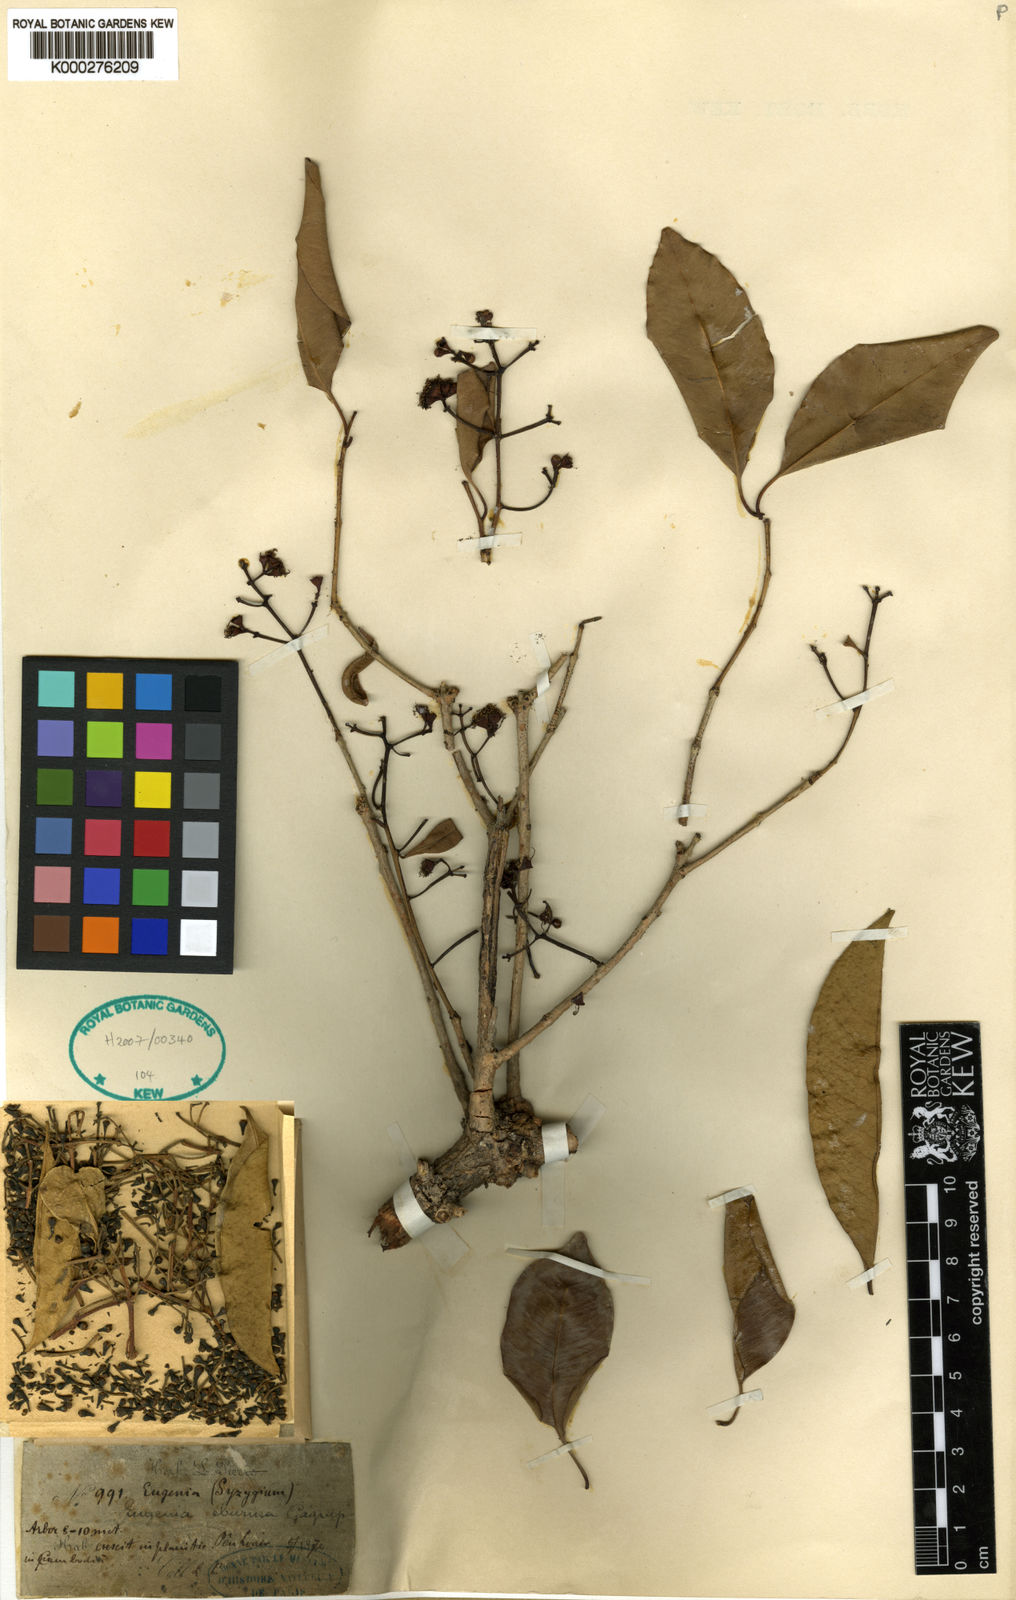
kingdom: Plantae
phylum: Tracheophyta
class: Magnoliopsida
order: Myrtales
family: Myrtaceae
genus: Syzygium
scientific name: Syzygium eburneum
